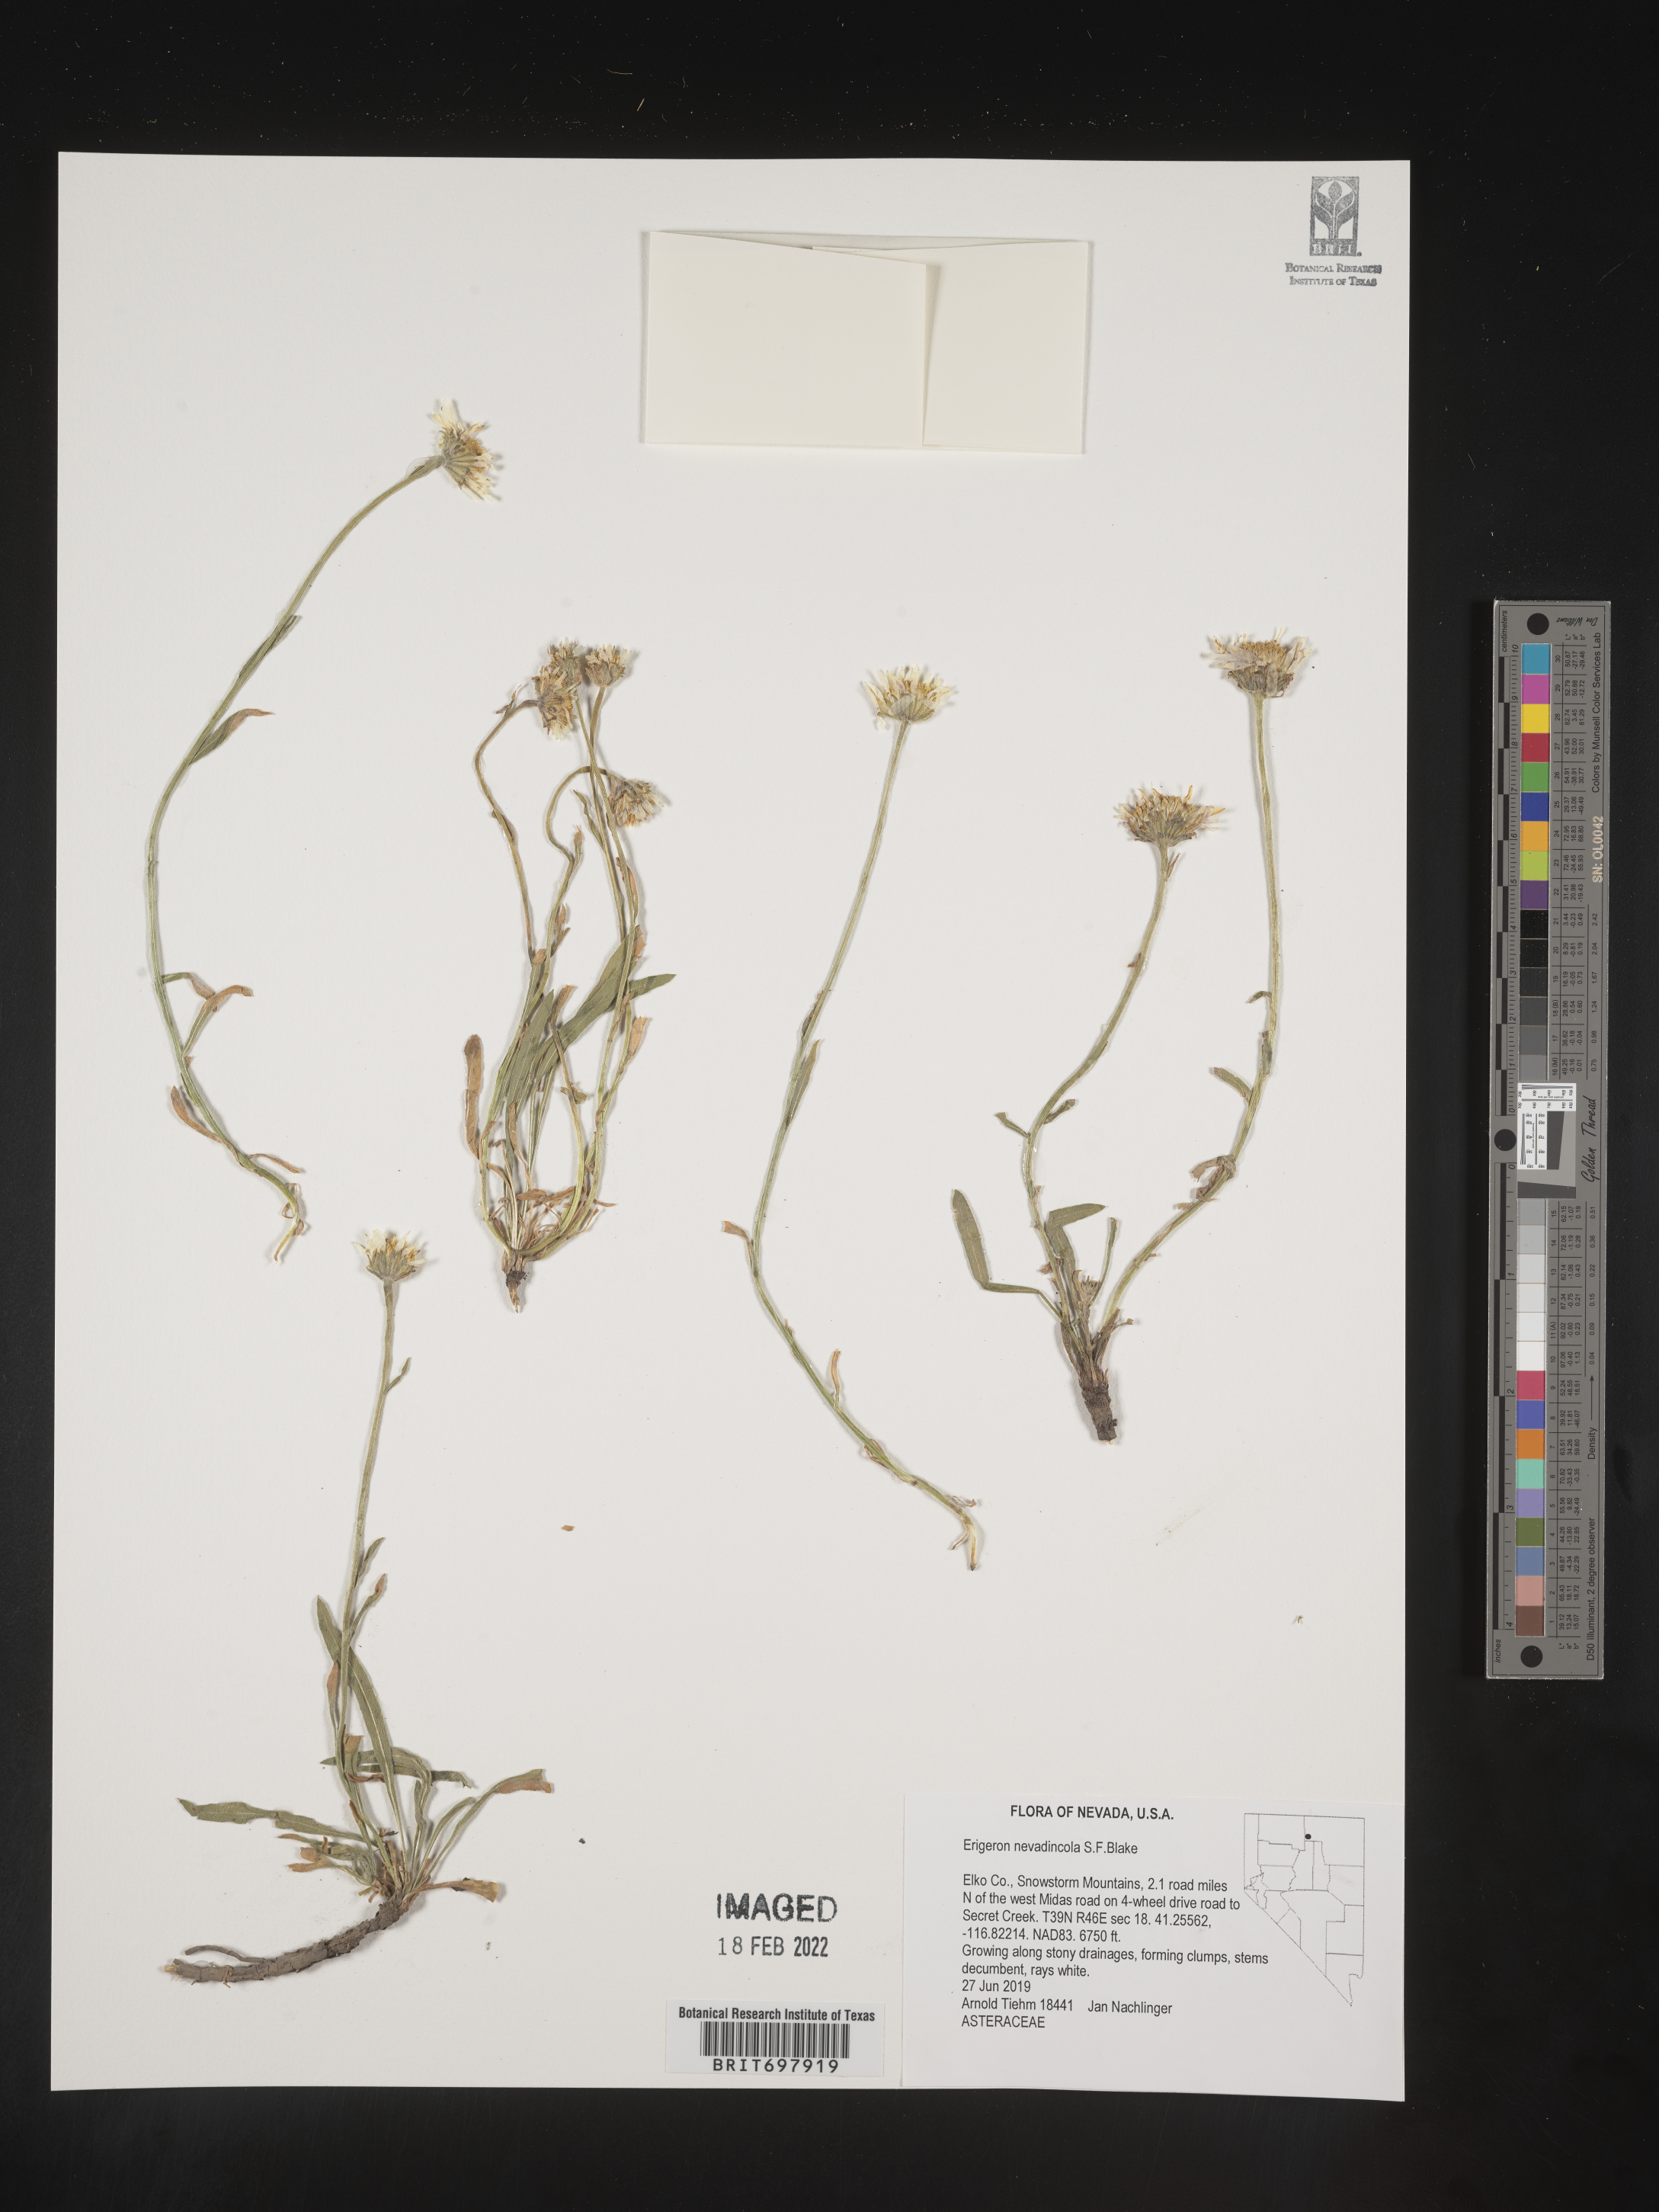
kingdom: Plantae
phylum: Tracheophyta
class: Magnoliopsida
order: Asterales
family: Asteraceae
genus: Erigeron
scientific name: Erigeron eatonii
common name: Eaton's fleabane
